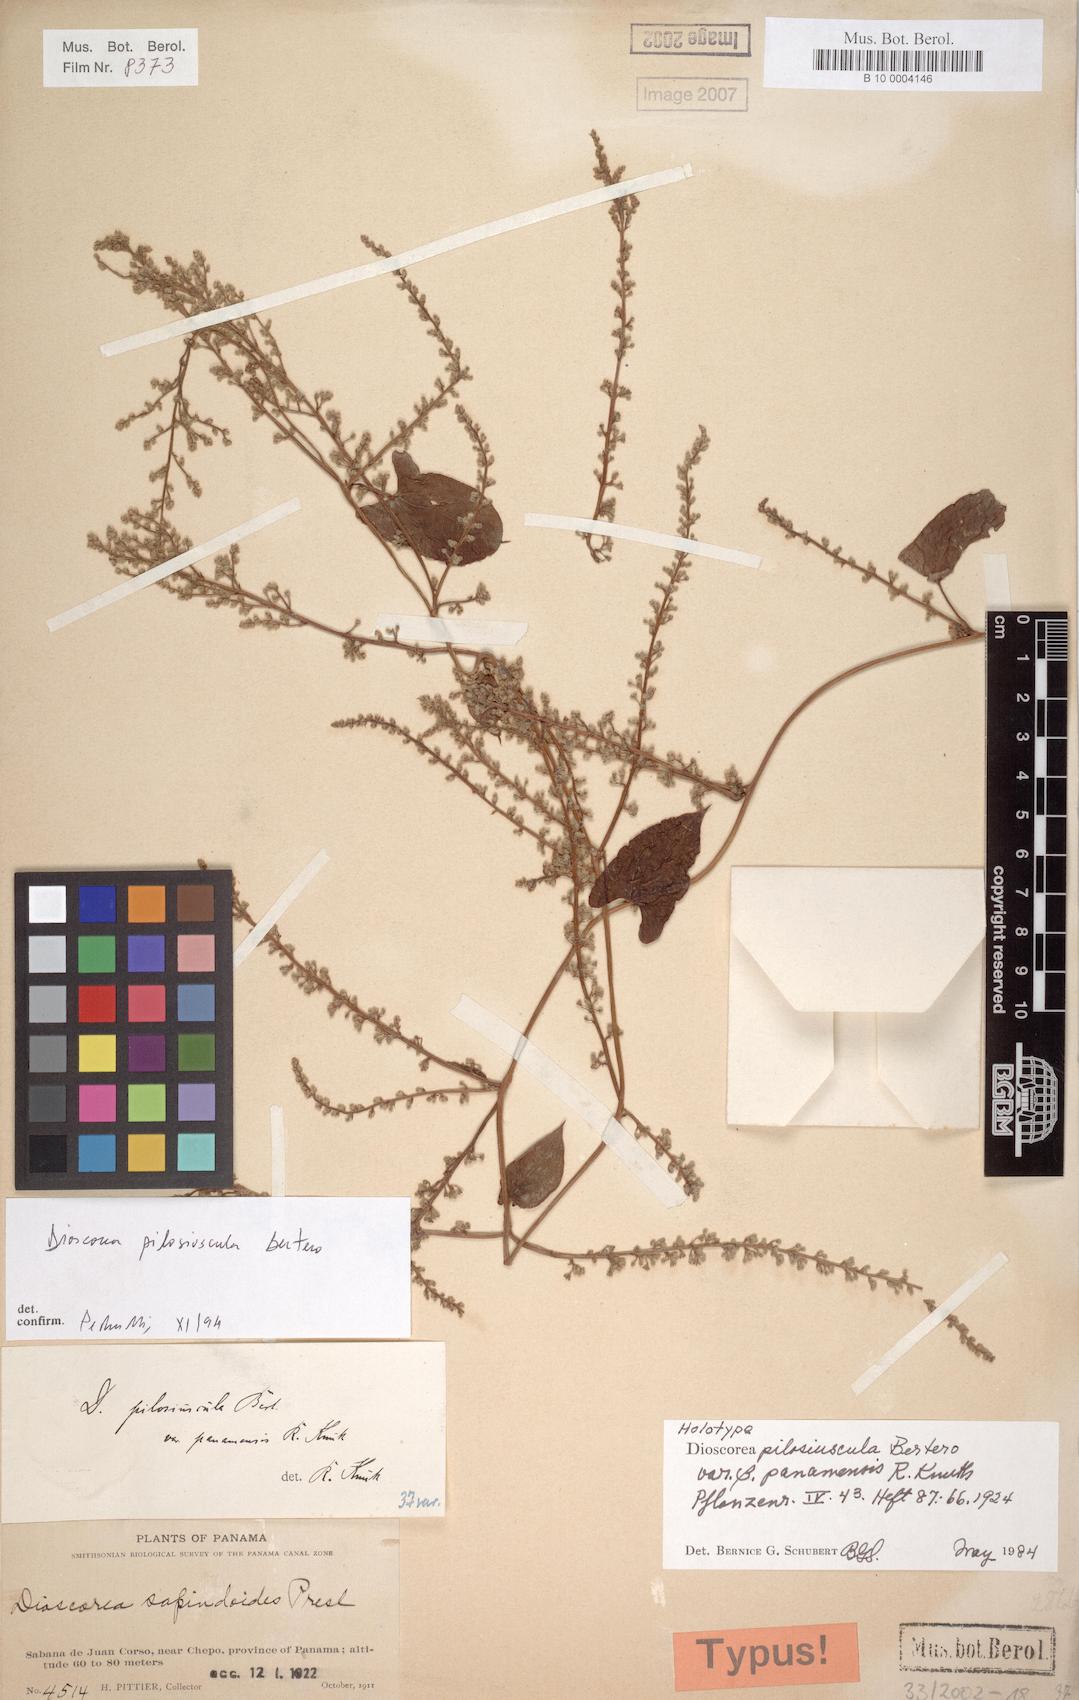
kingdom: Plantae
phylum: Tracheophyta
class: Liliopsida
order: Dioscoreales
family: Dioscoreaceae
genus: Dioscorea
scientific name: Dioscorea pilosiuscula
